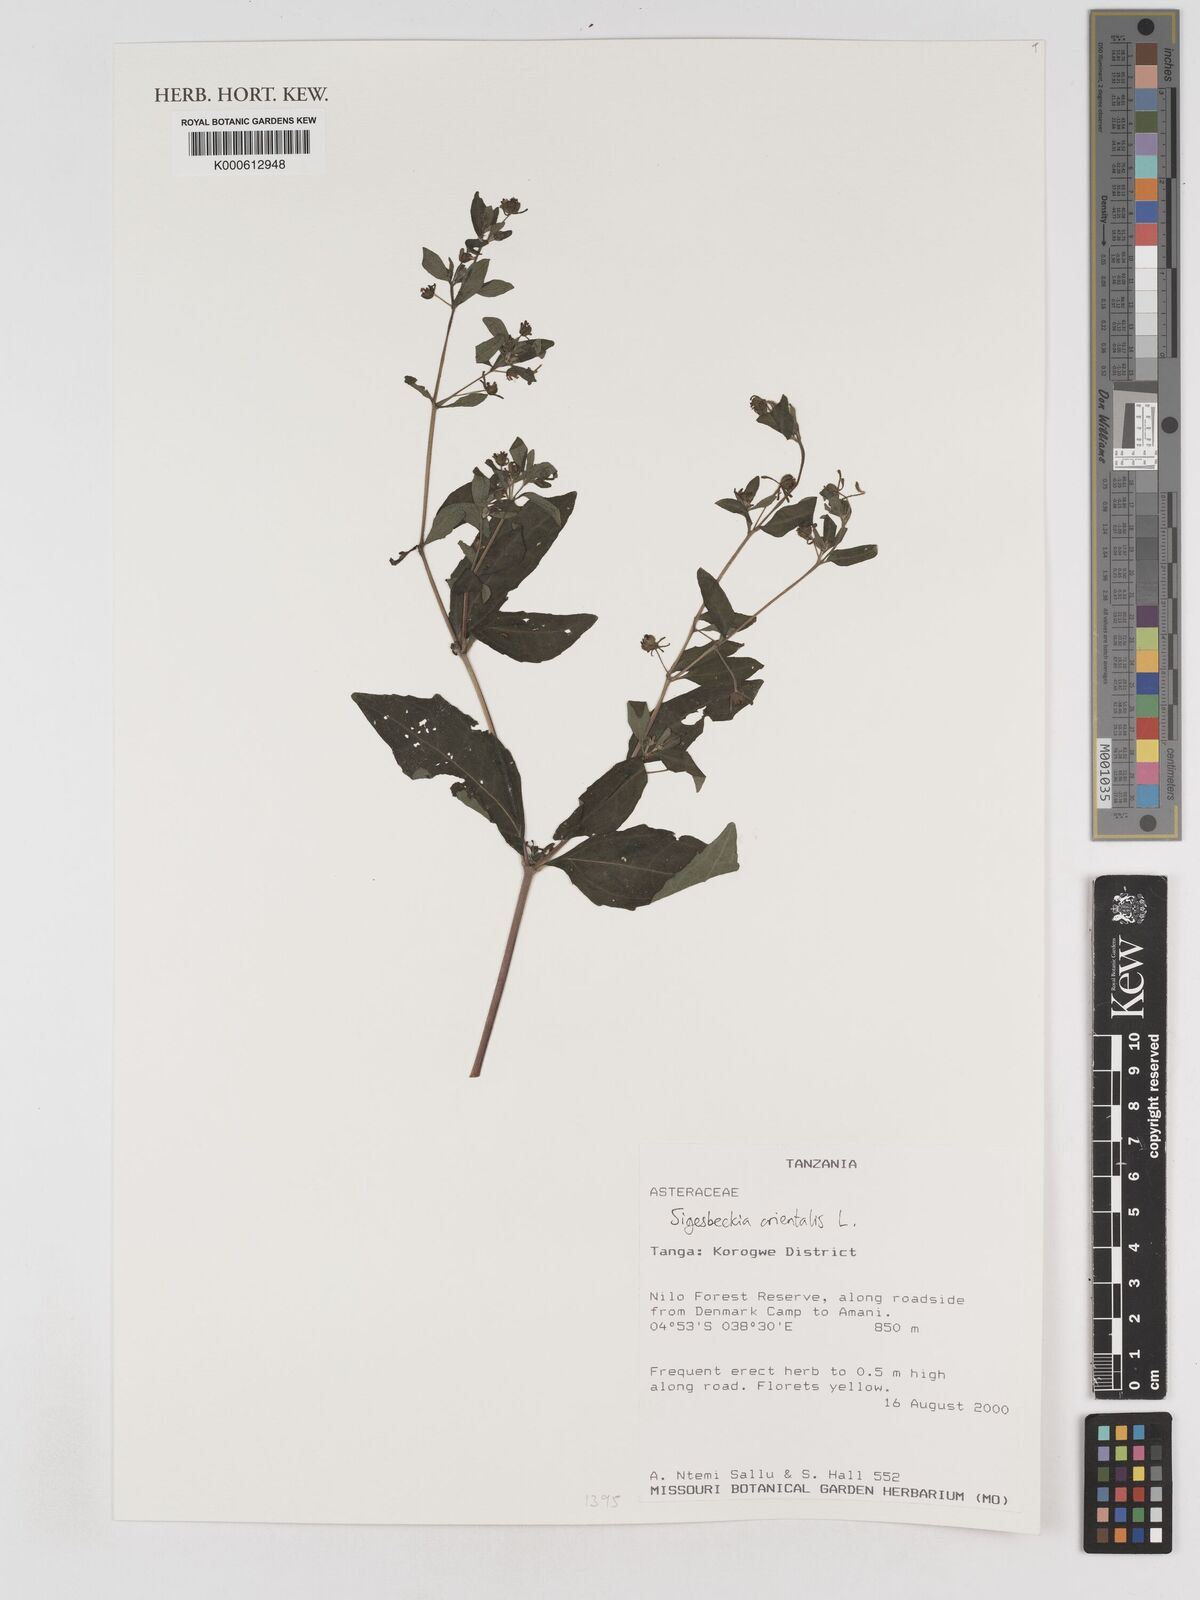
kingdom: Plantae
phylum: Tracheophyta
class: Magnoliopsida
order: Asterales
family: Asteraceae
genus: Sigesbeckia
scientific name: Sigesbeckia orientalis
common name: Eastern st paul's-wort
